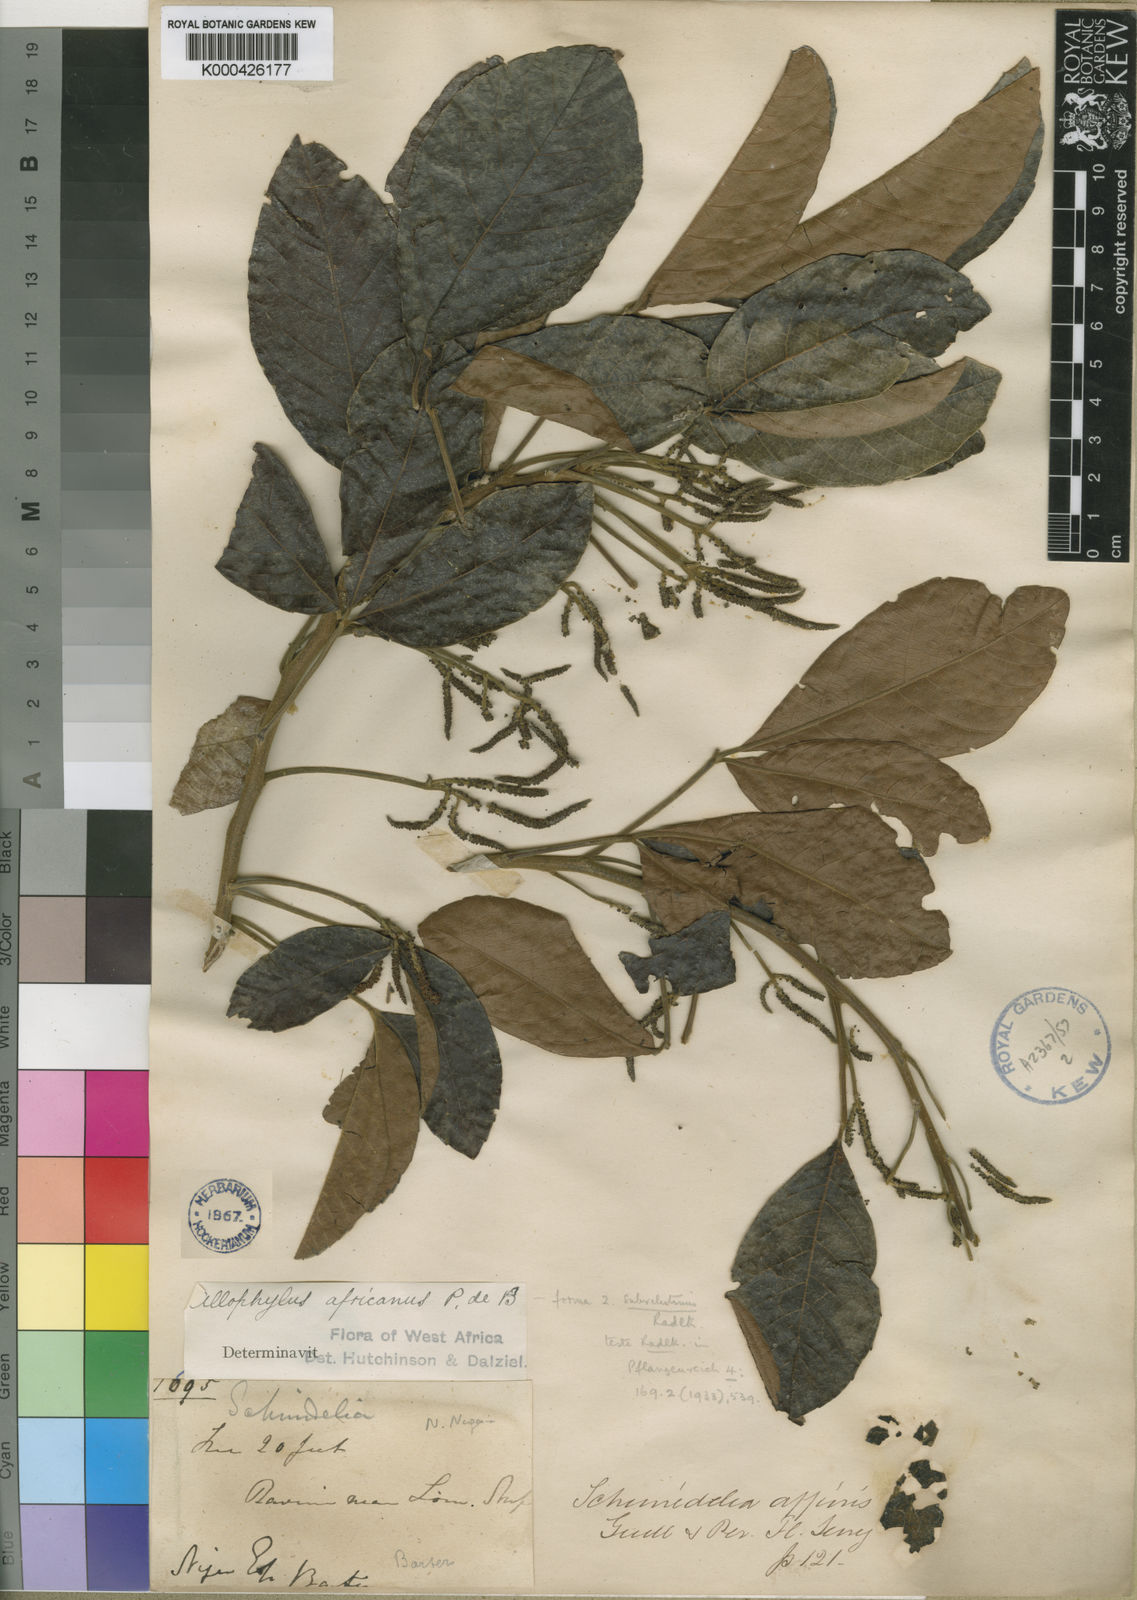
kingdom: Plantae
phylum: Tracheophyta
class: Magnoliopsida
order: Sapindales
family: Sapindaceae
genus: Allophylus
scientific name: Allophylus africanus
